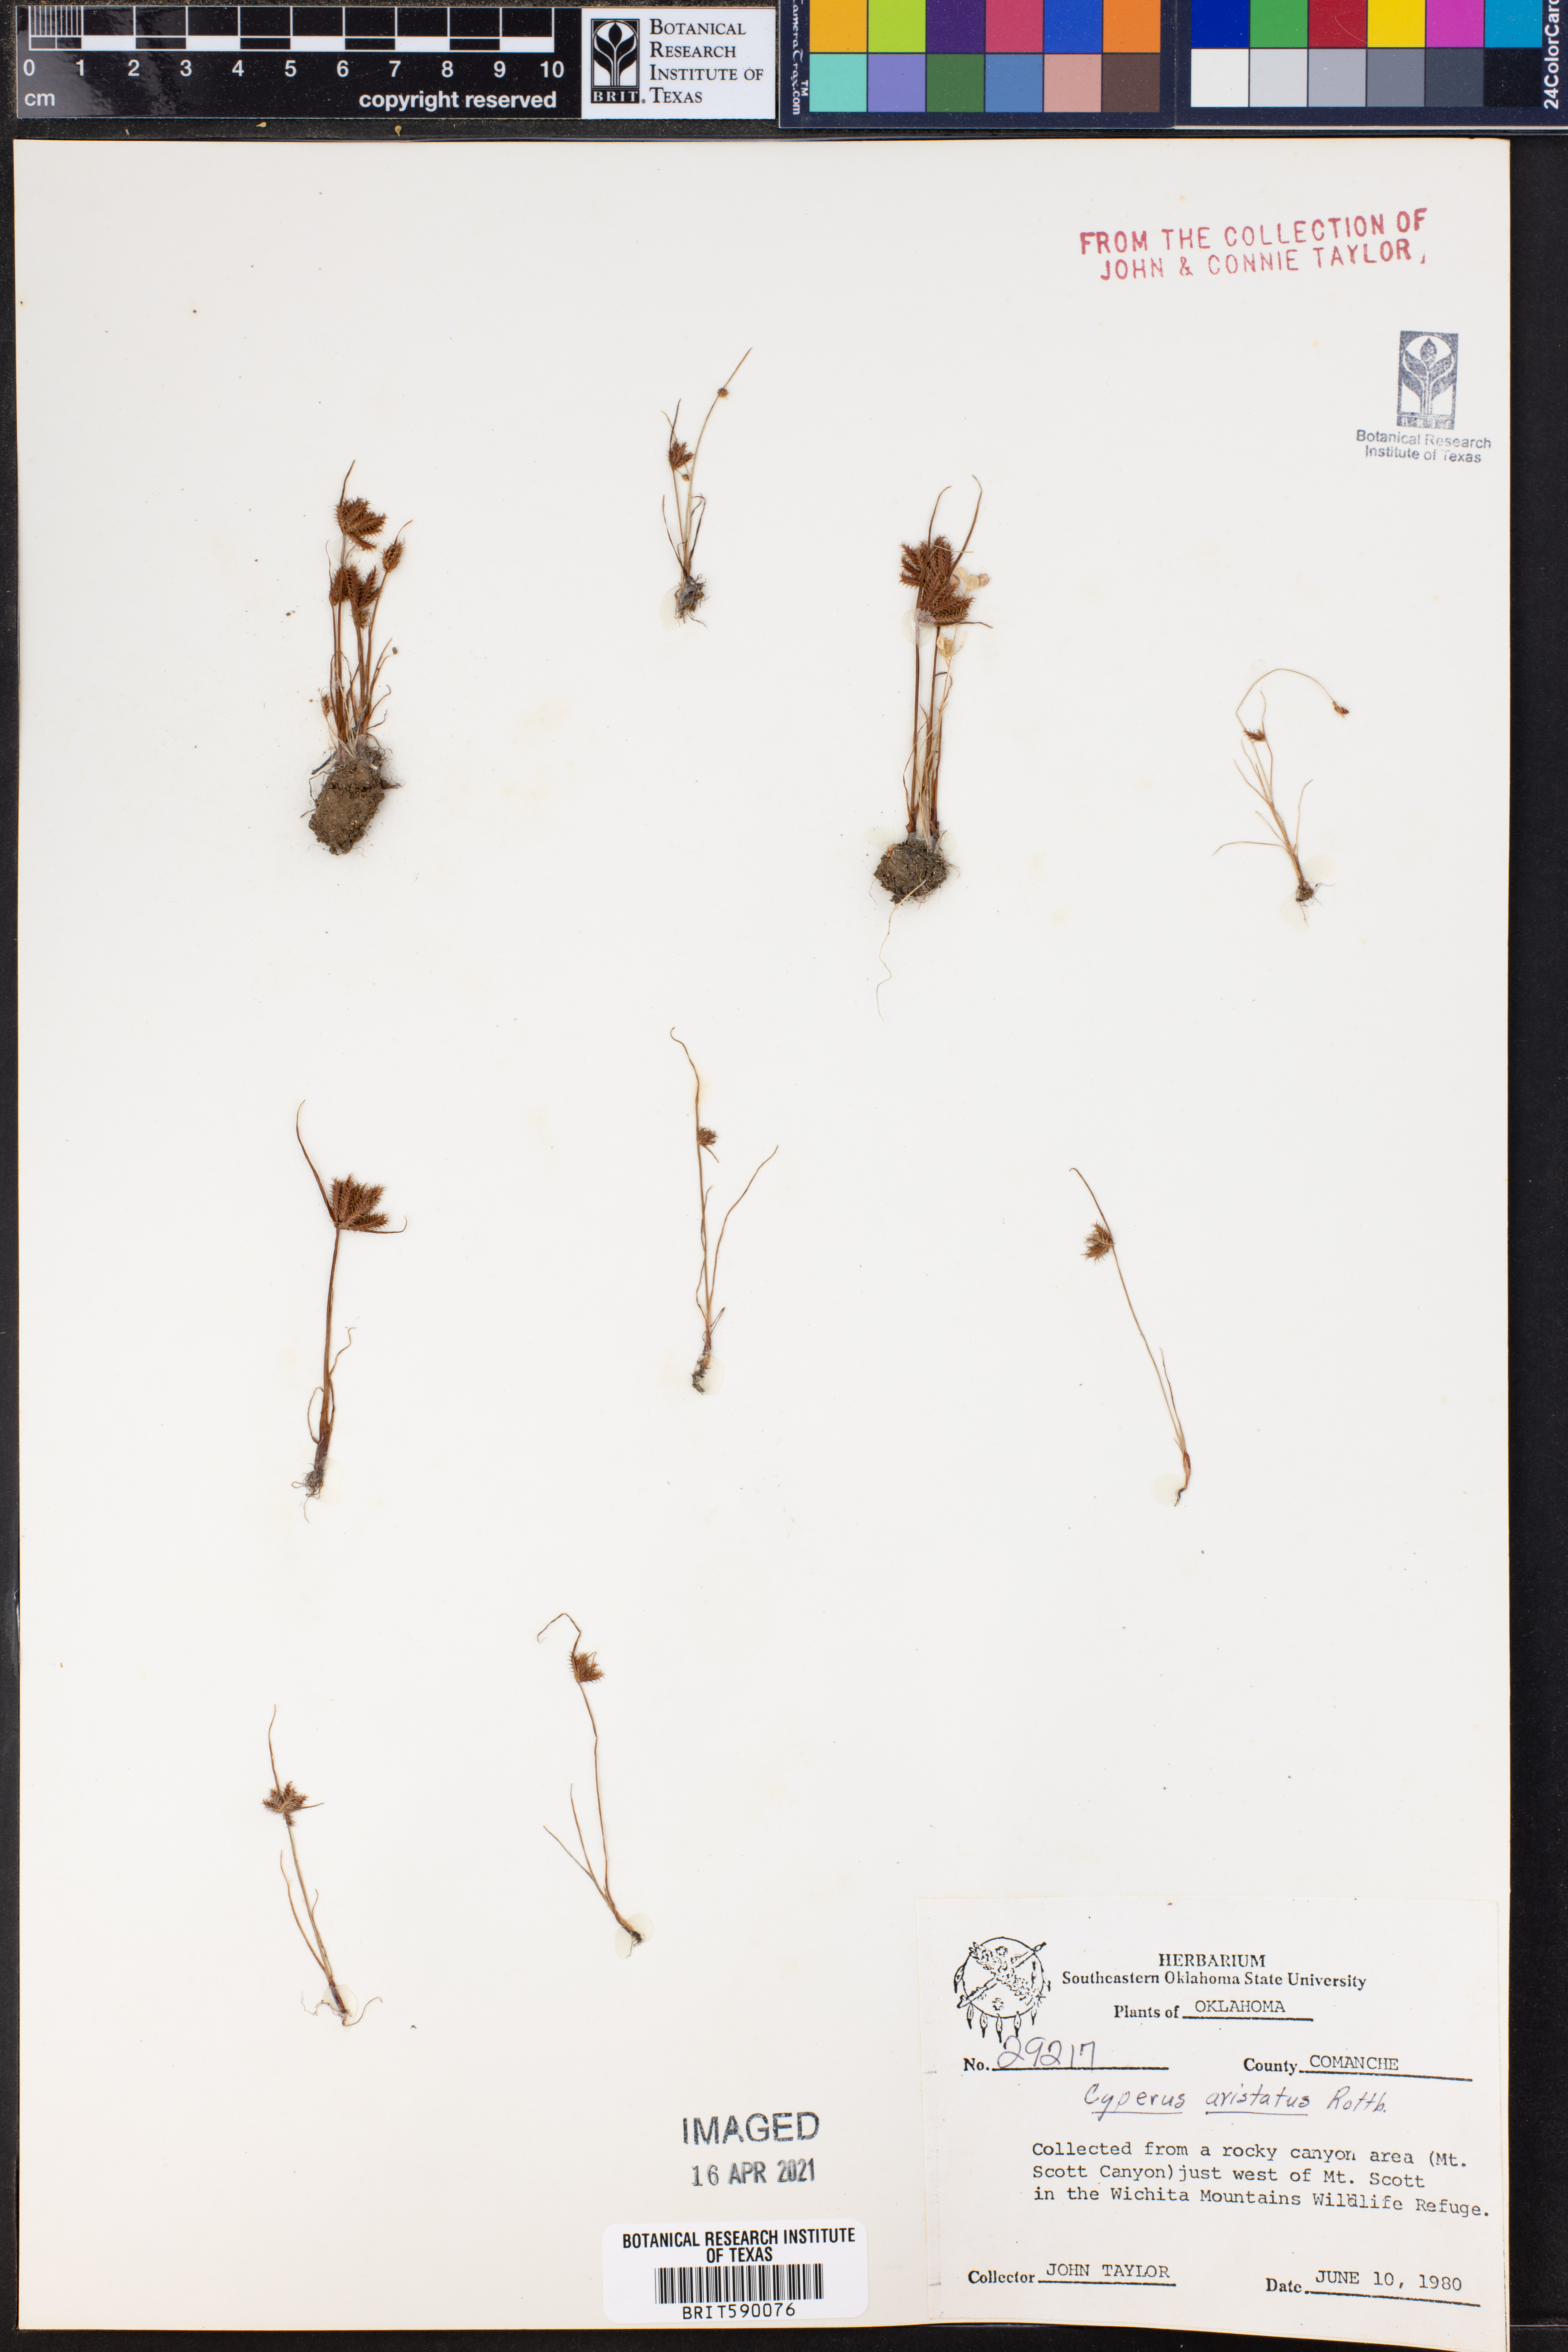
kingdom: Plantae
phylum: Tracheophyta
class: Liliopsida
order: Poales
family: Cyperaceae
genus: Cyperus
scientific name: Cyperus squarrosus
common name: Awned cyperus
